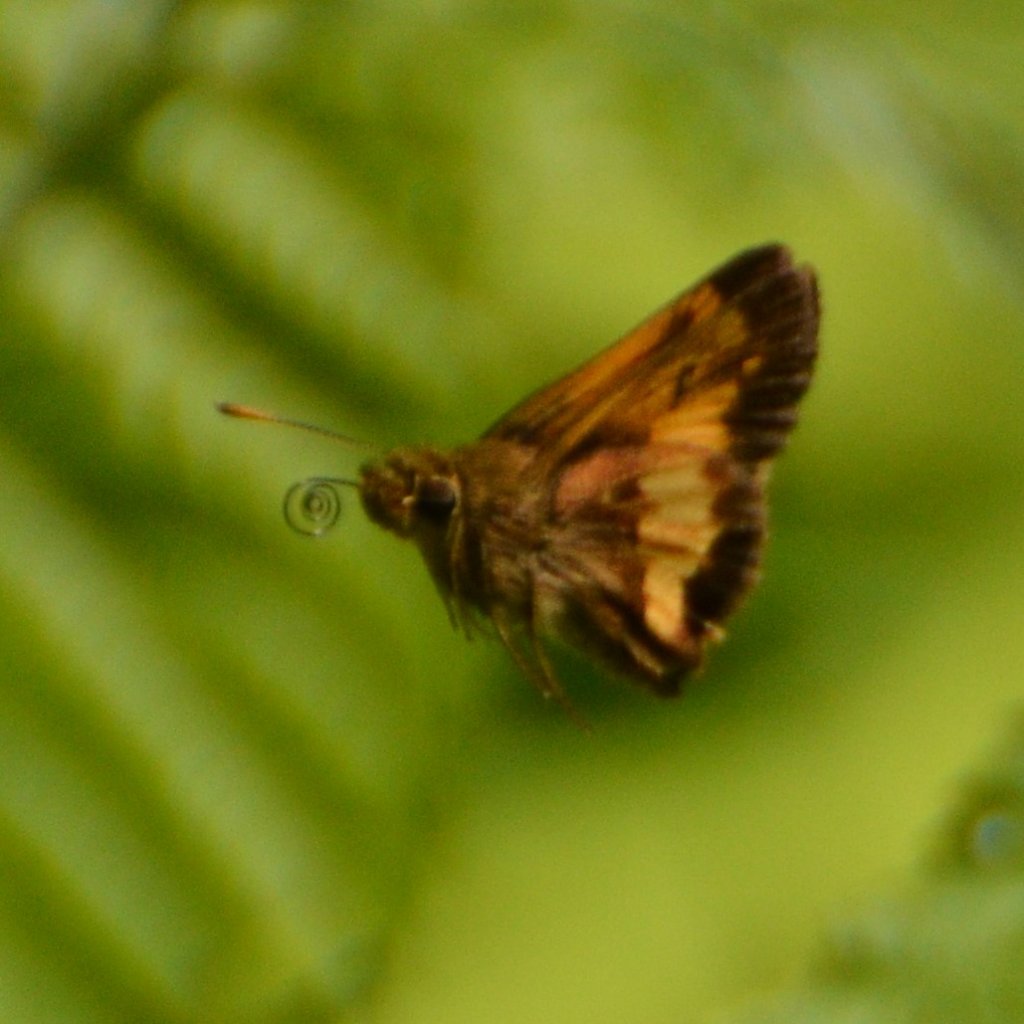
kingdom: Animalia
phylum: Arthropoda
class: Insecta
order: Lepidoptera
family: Hesperiidae
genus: Lon
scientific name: Lon hobomok
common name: Hobomok Skipper
